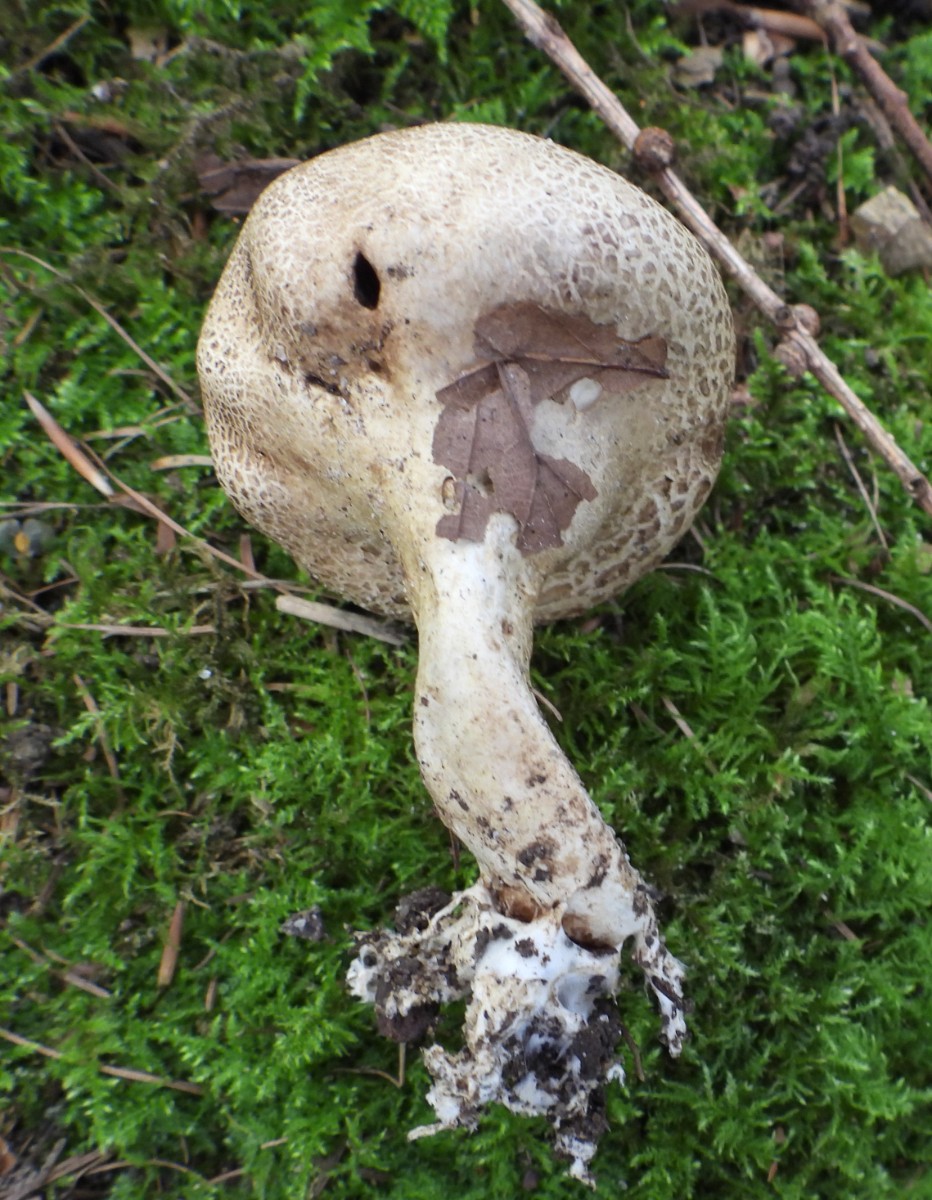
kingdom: Fungi
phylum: Basidiomycota
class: Agaricomycetes
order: Boletales
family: Sclerodermataceae
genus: Scleroderma
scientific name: Scleroderma verrucosum
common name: stilket bruskbold
